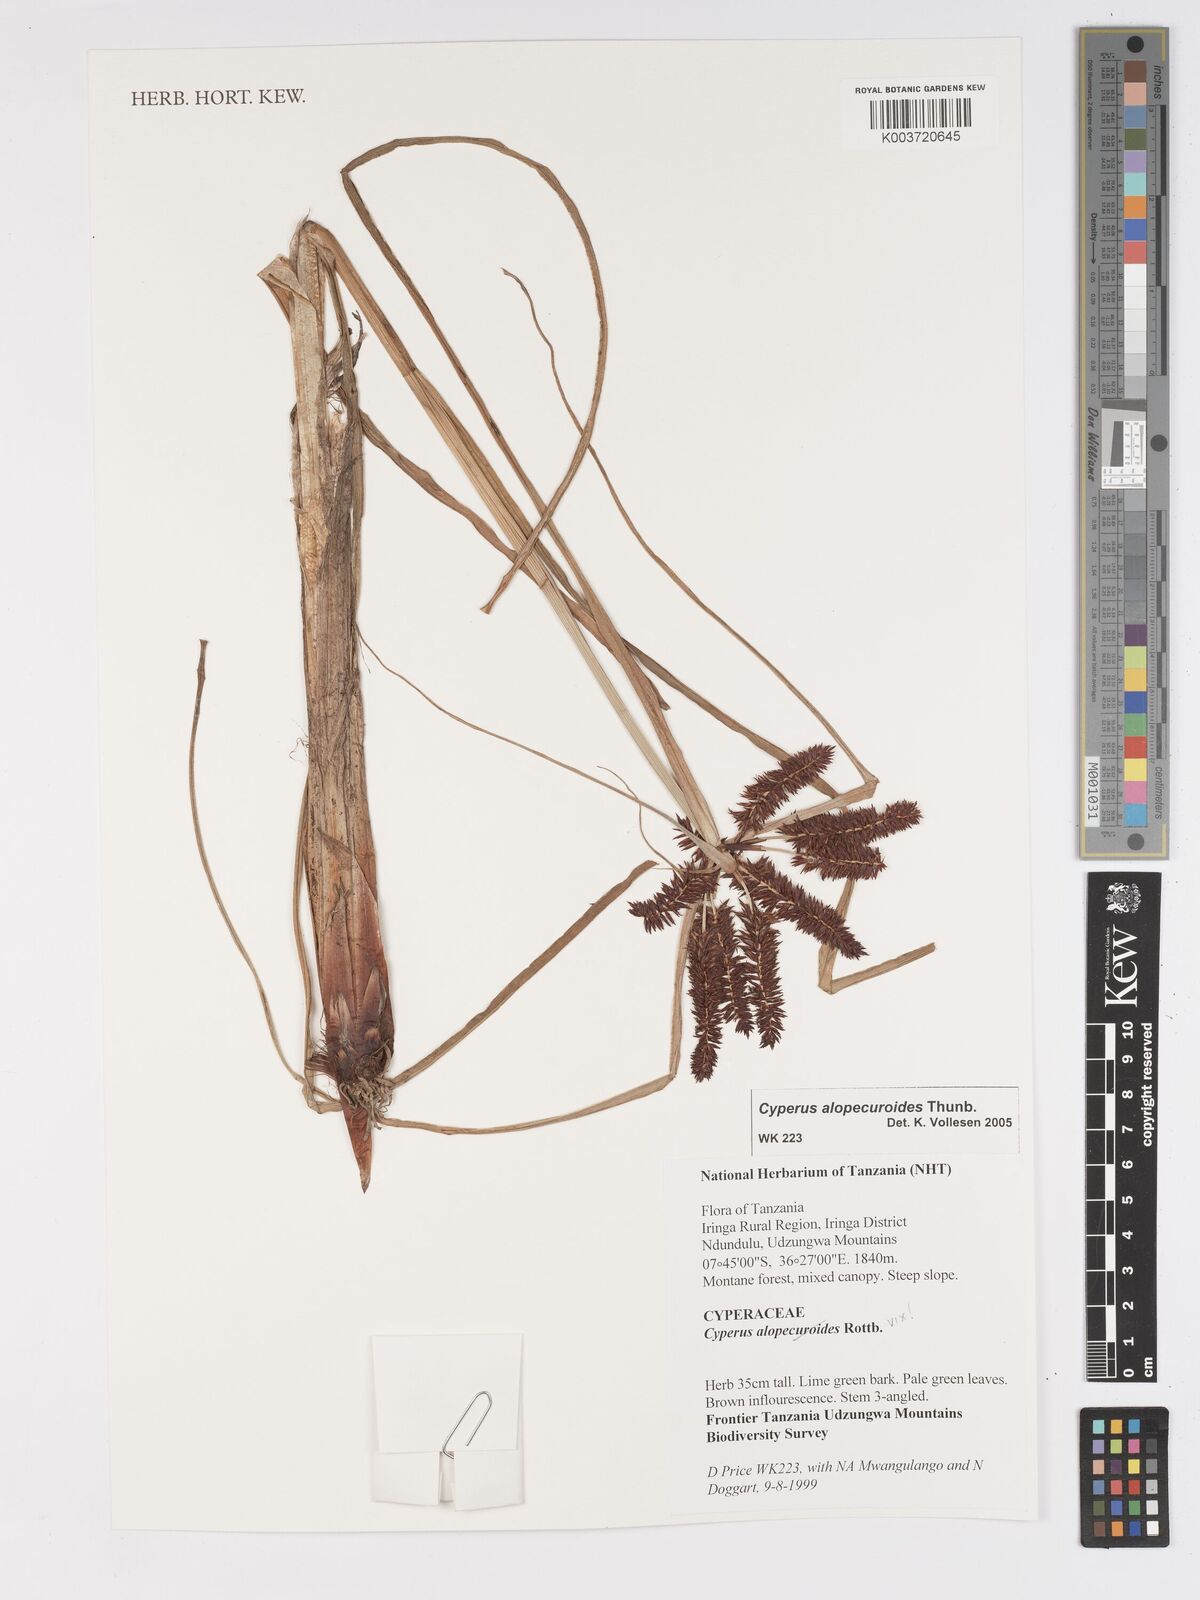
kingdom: Plantae
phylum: Tracheophyta
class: Liliopsida
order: Poales
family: Cyperaceae
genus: Cyperus
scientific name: Cyperus thunbergii
